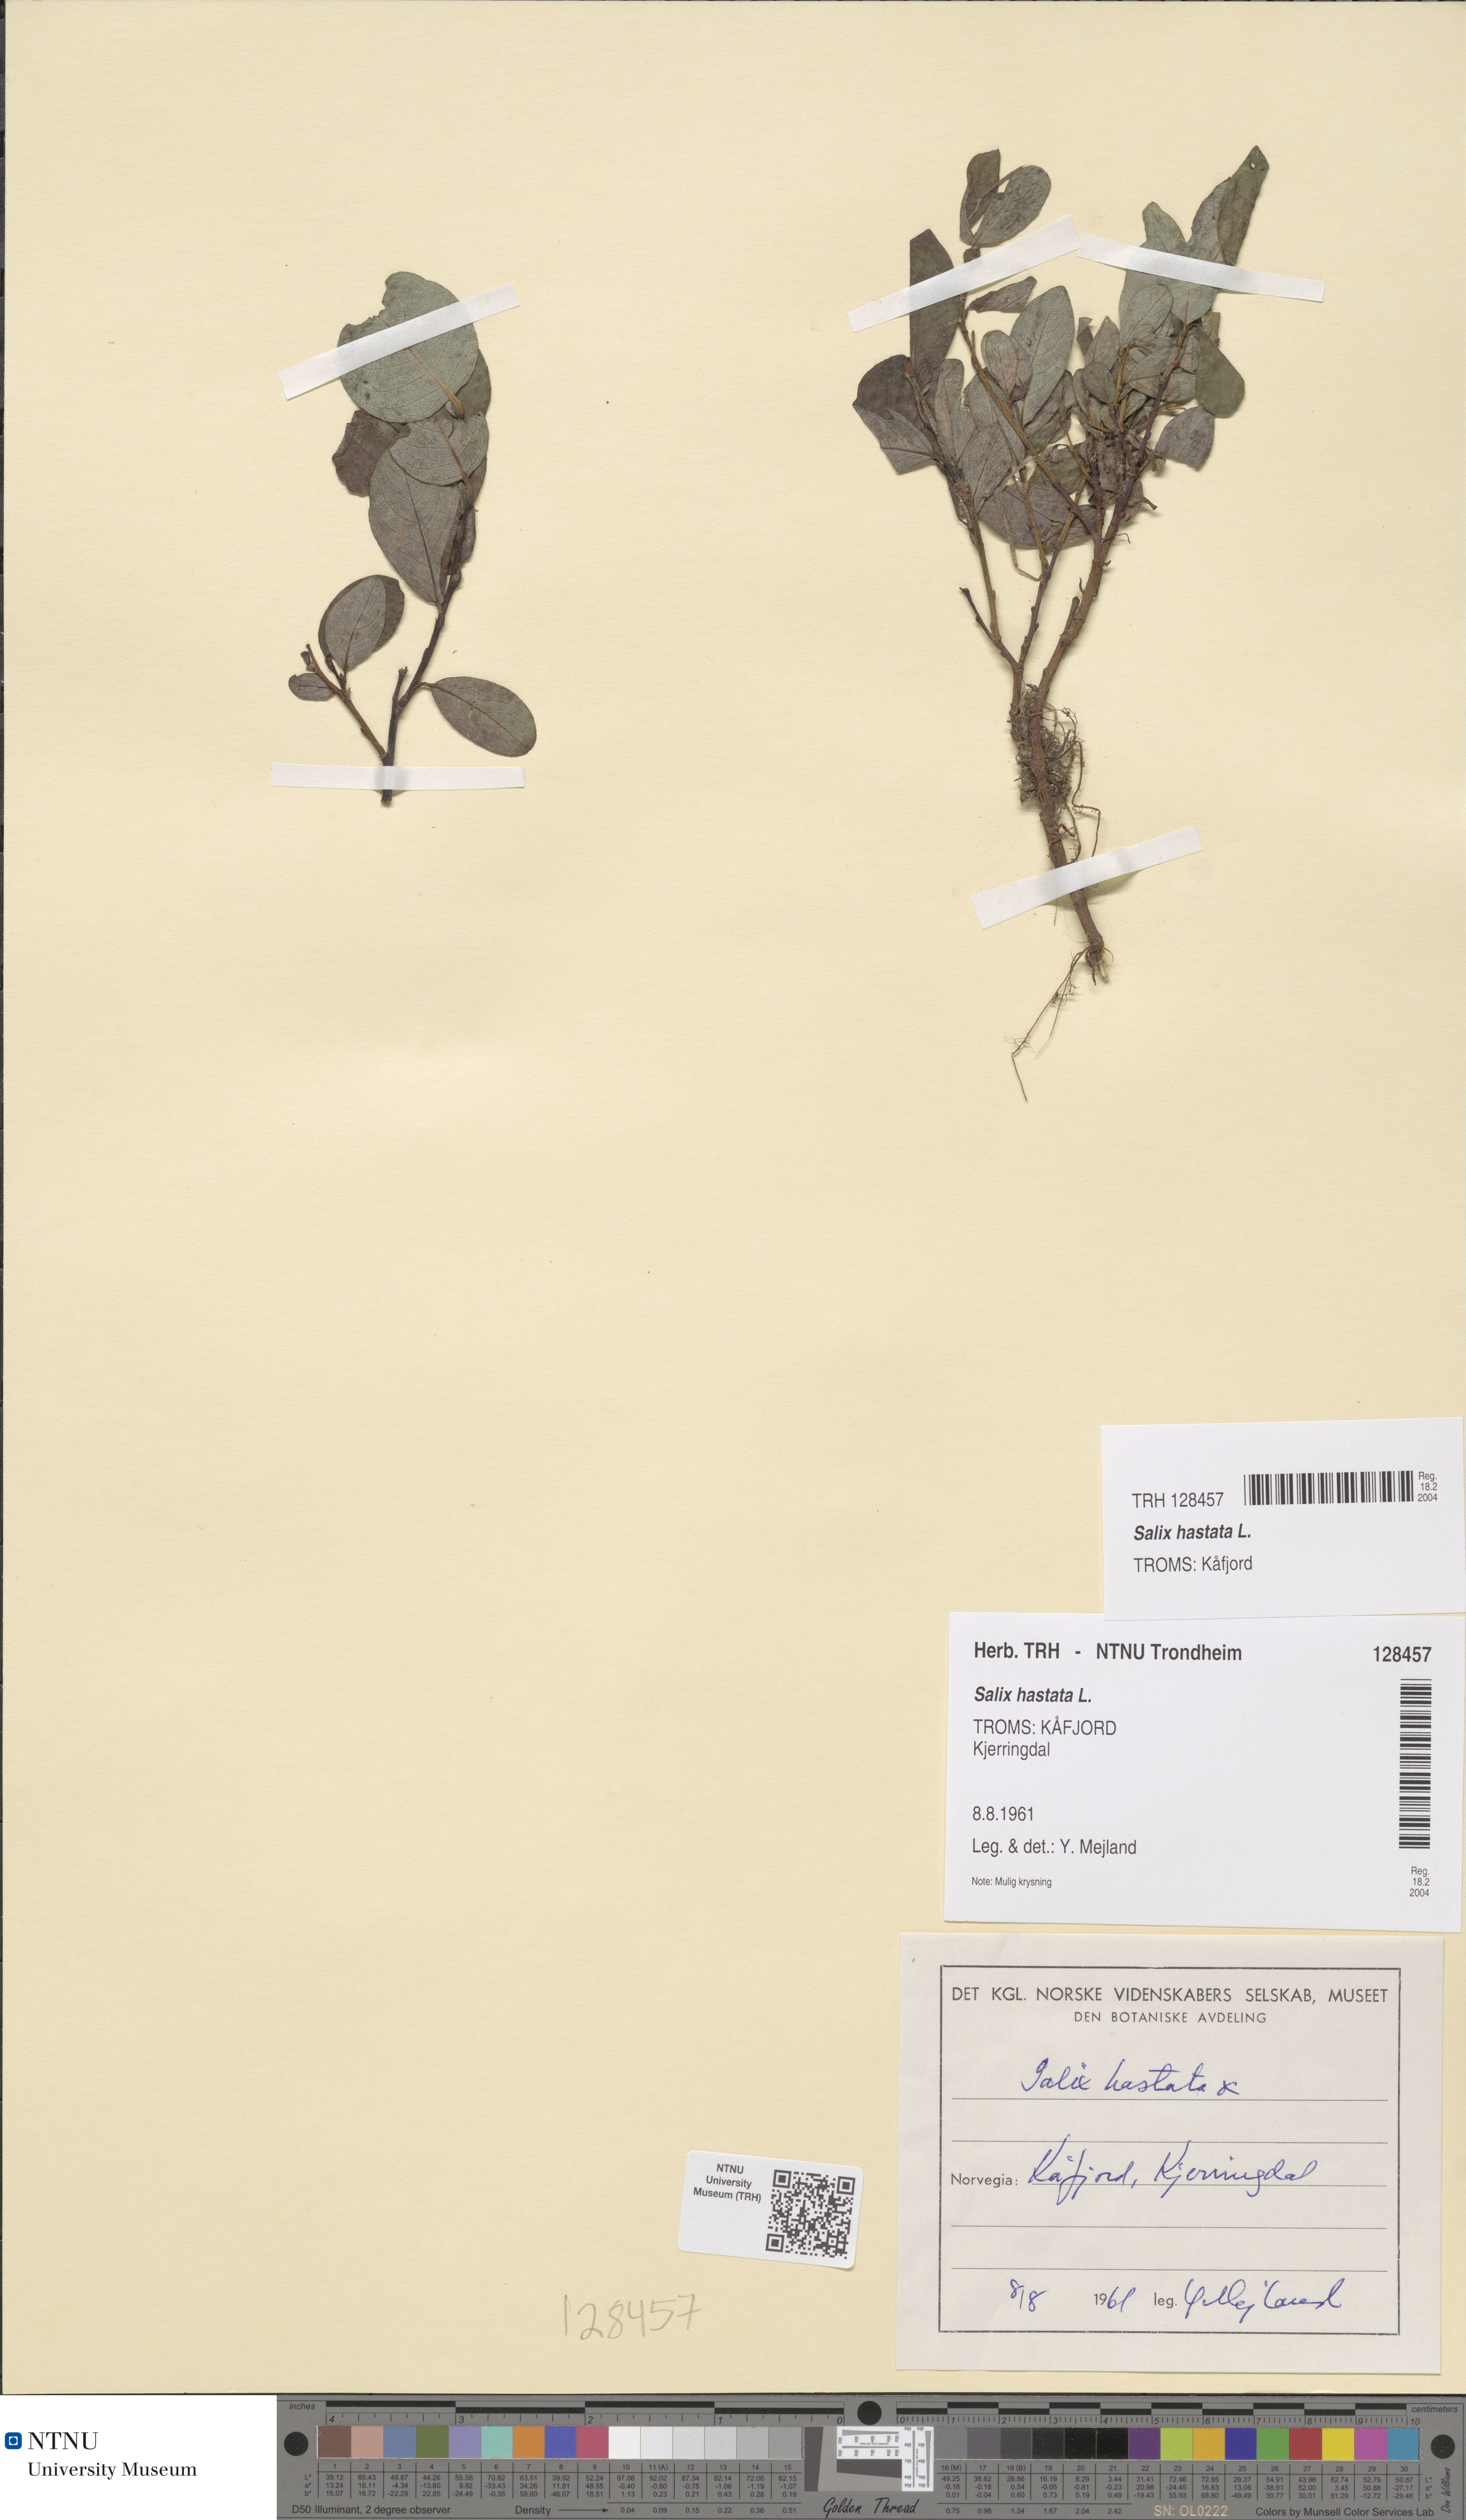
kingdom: Plantae
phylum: Tracheophyta
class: Magnoliopsida
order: Malpighiales
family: Salicaceae
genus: Salix
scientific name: Salix hastata
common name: Halberd willow
